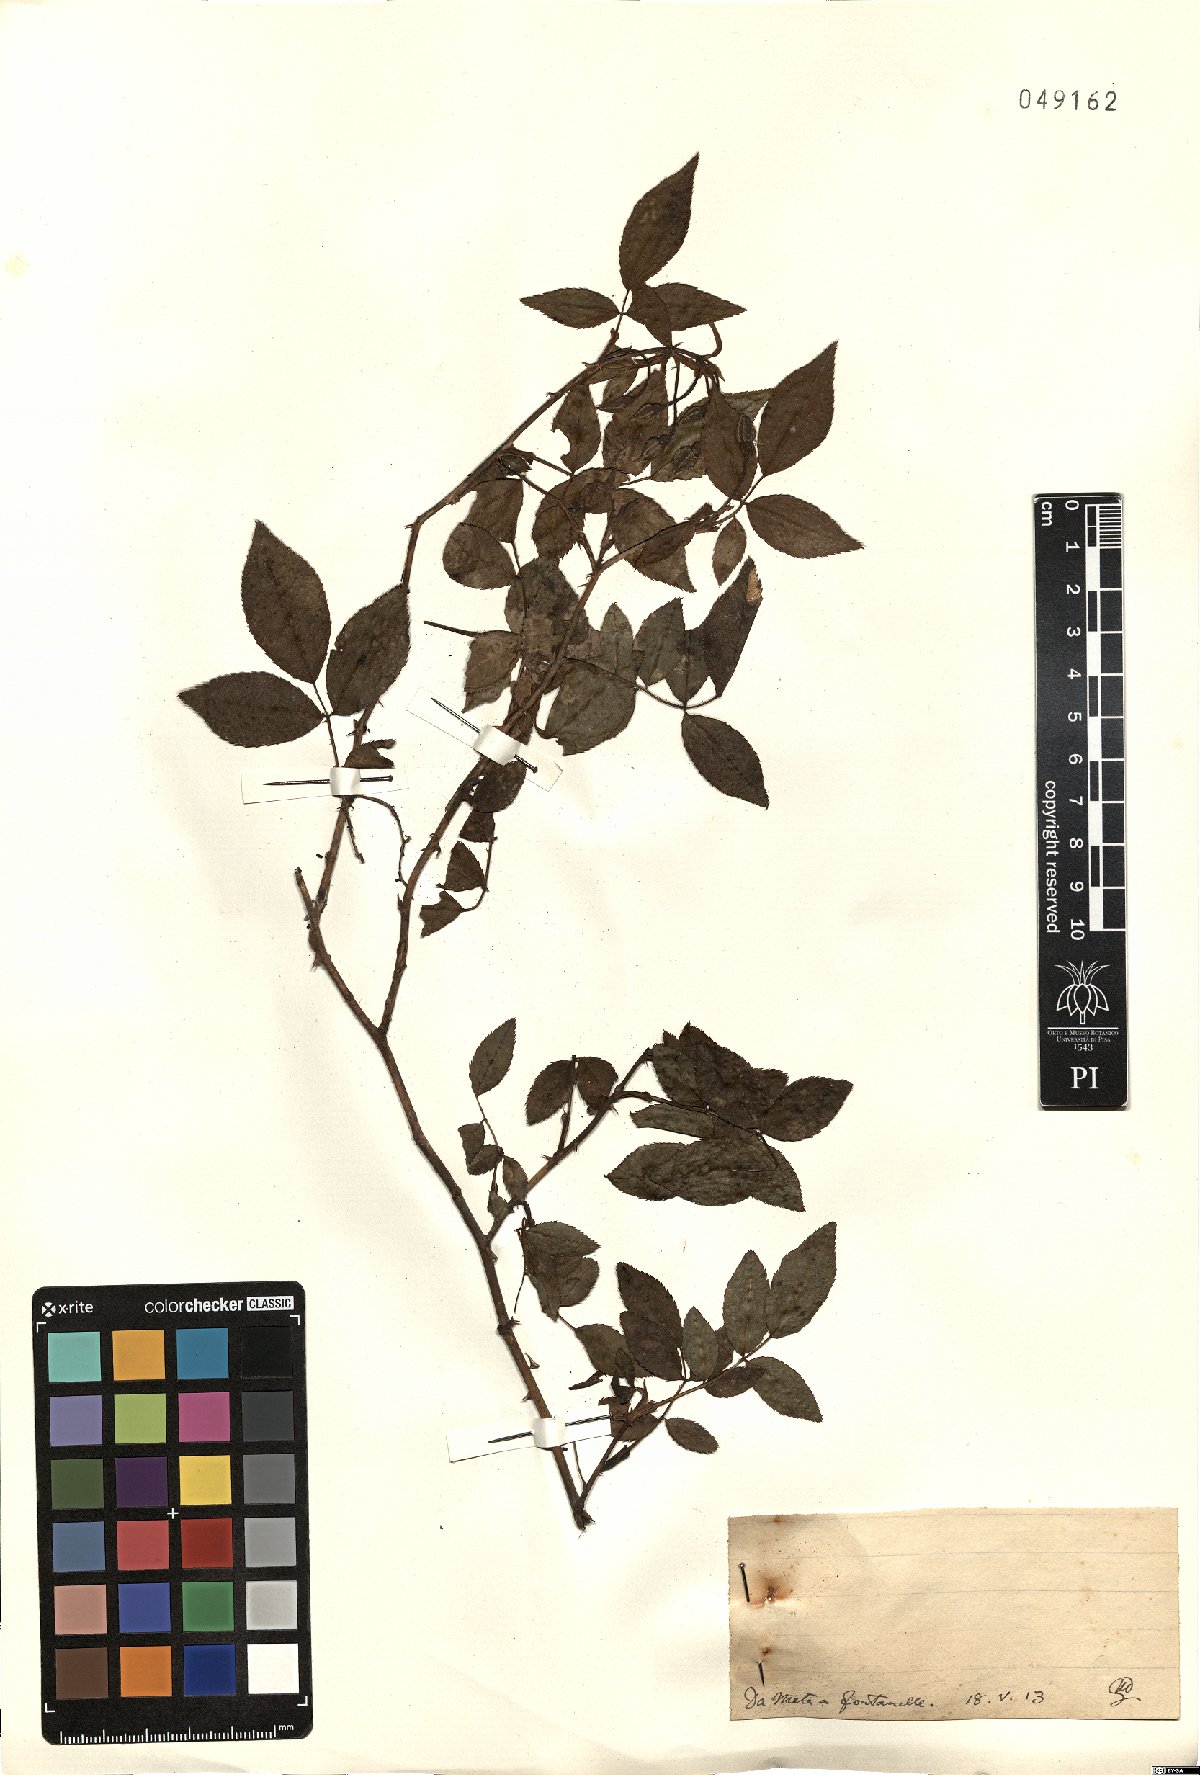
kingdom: Plantae
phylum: Tracheophyta
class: Magnoliopsida
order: Rosales
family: Rosaceae
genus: Rosa
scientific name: Rosa
